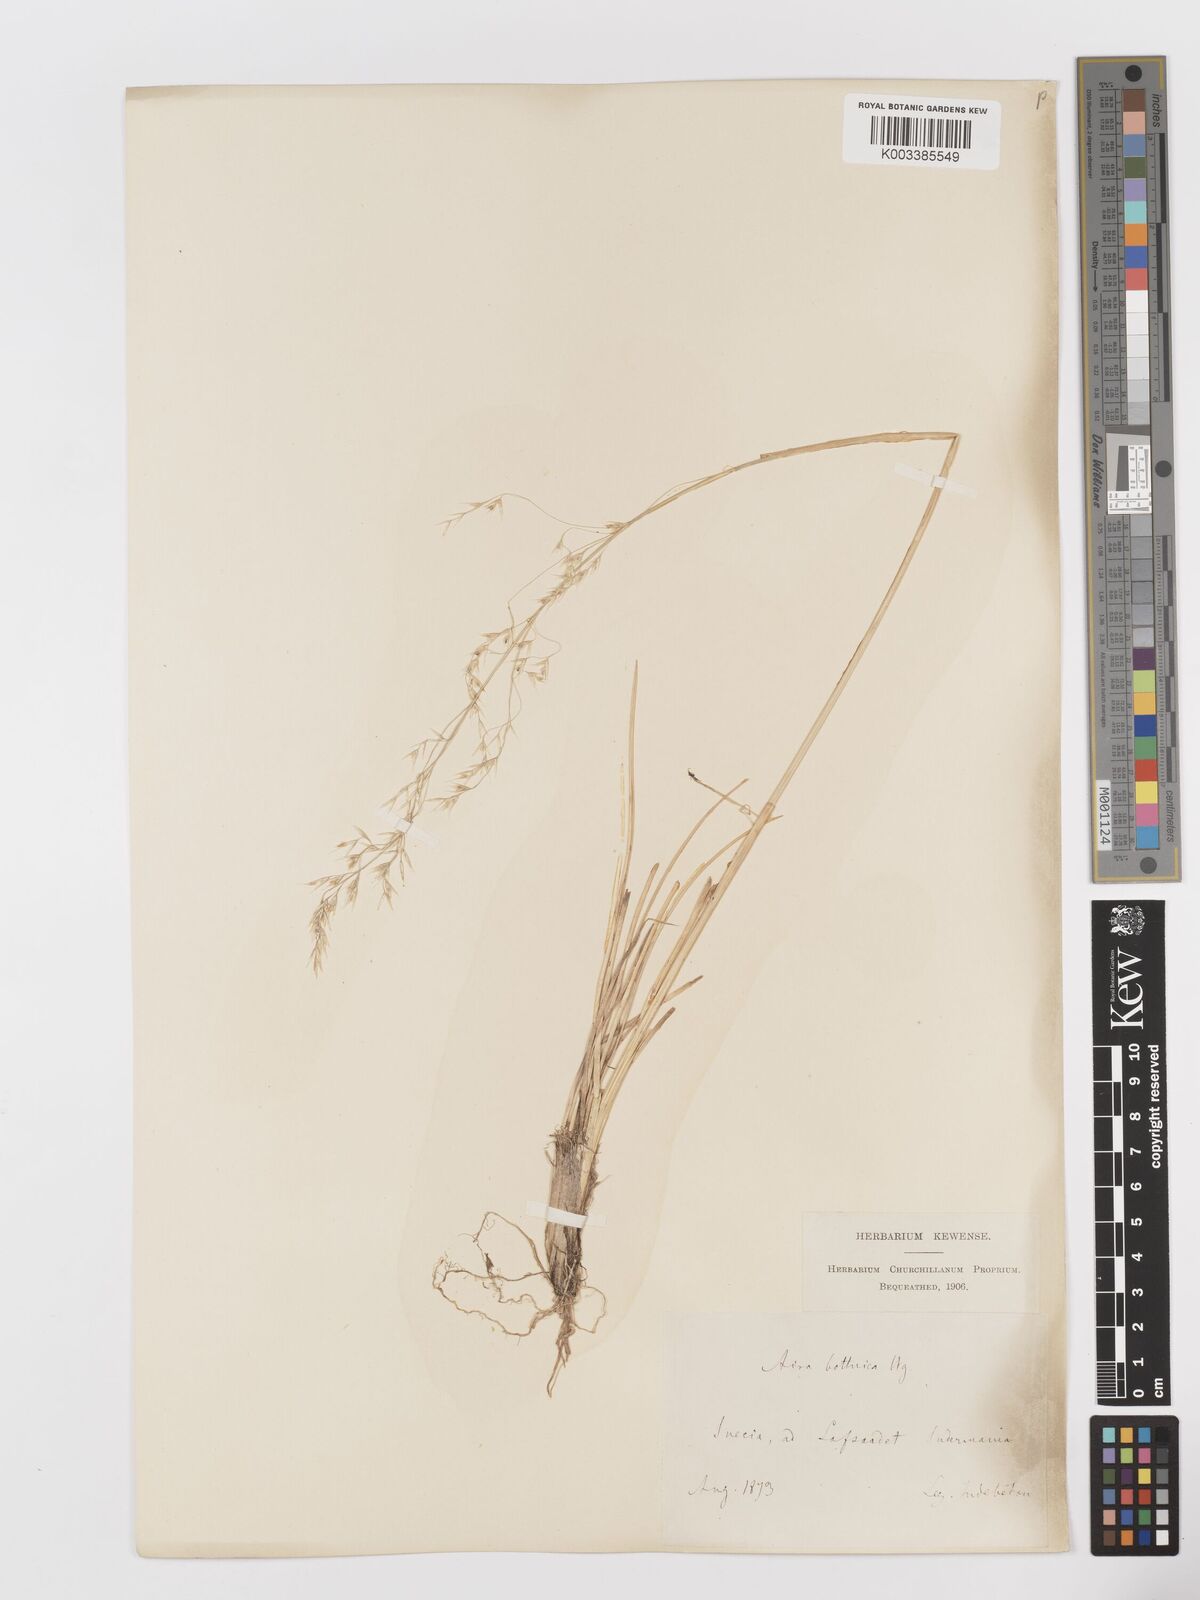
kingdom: Plantae
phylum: Tracheophyta
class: Liliopsida
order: Poales
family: Poaceae
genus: Deschampsia
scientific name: Deschampsia cespitosa
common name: Tufted hair-grass
